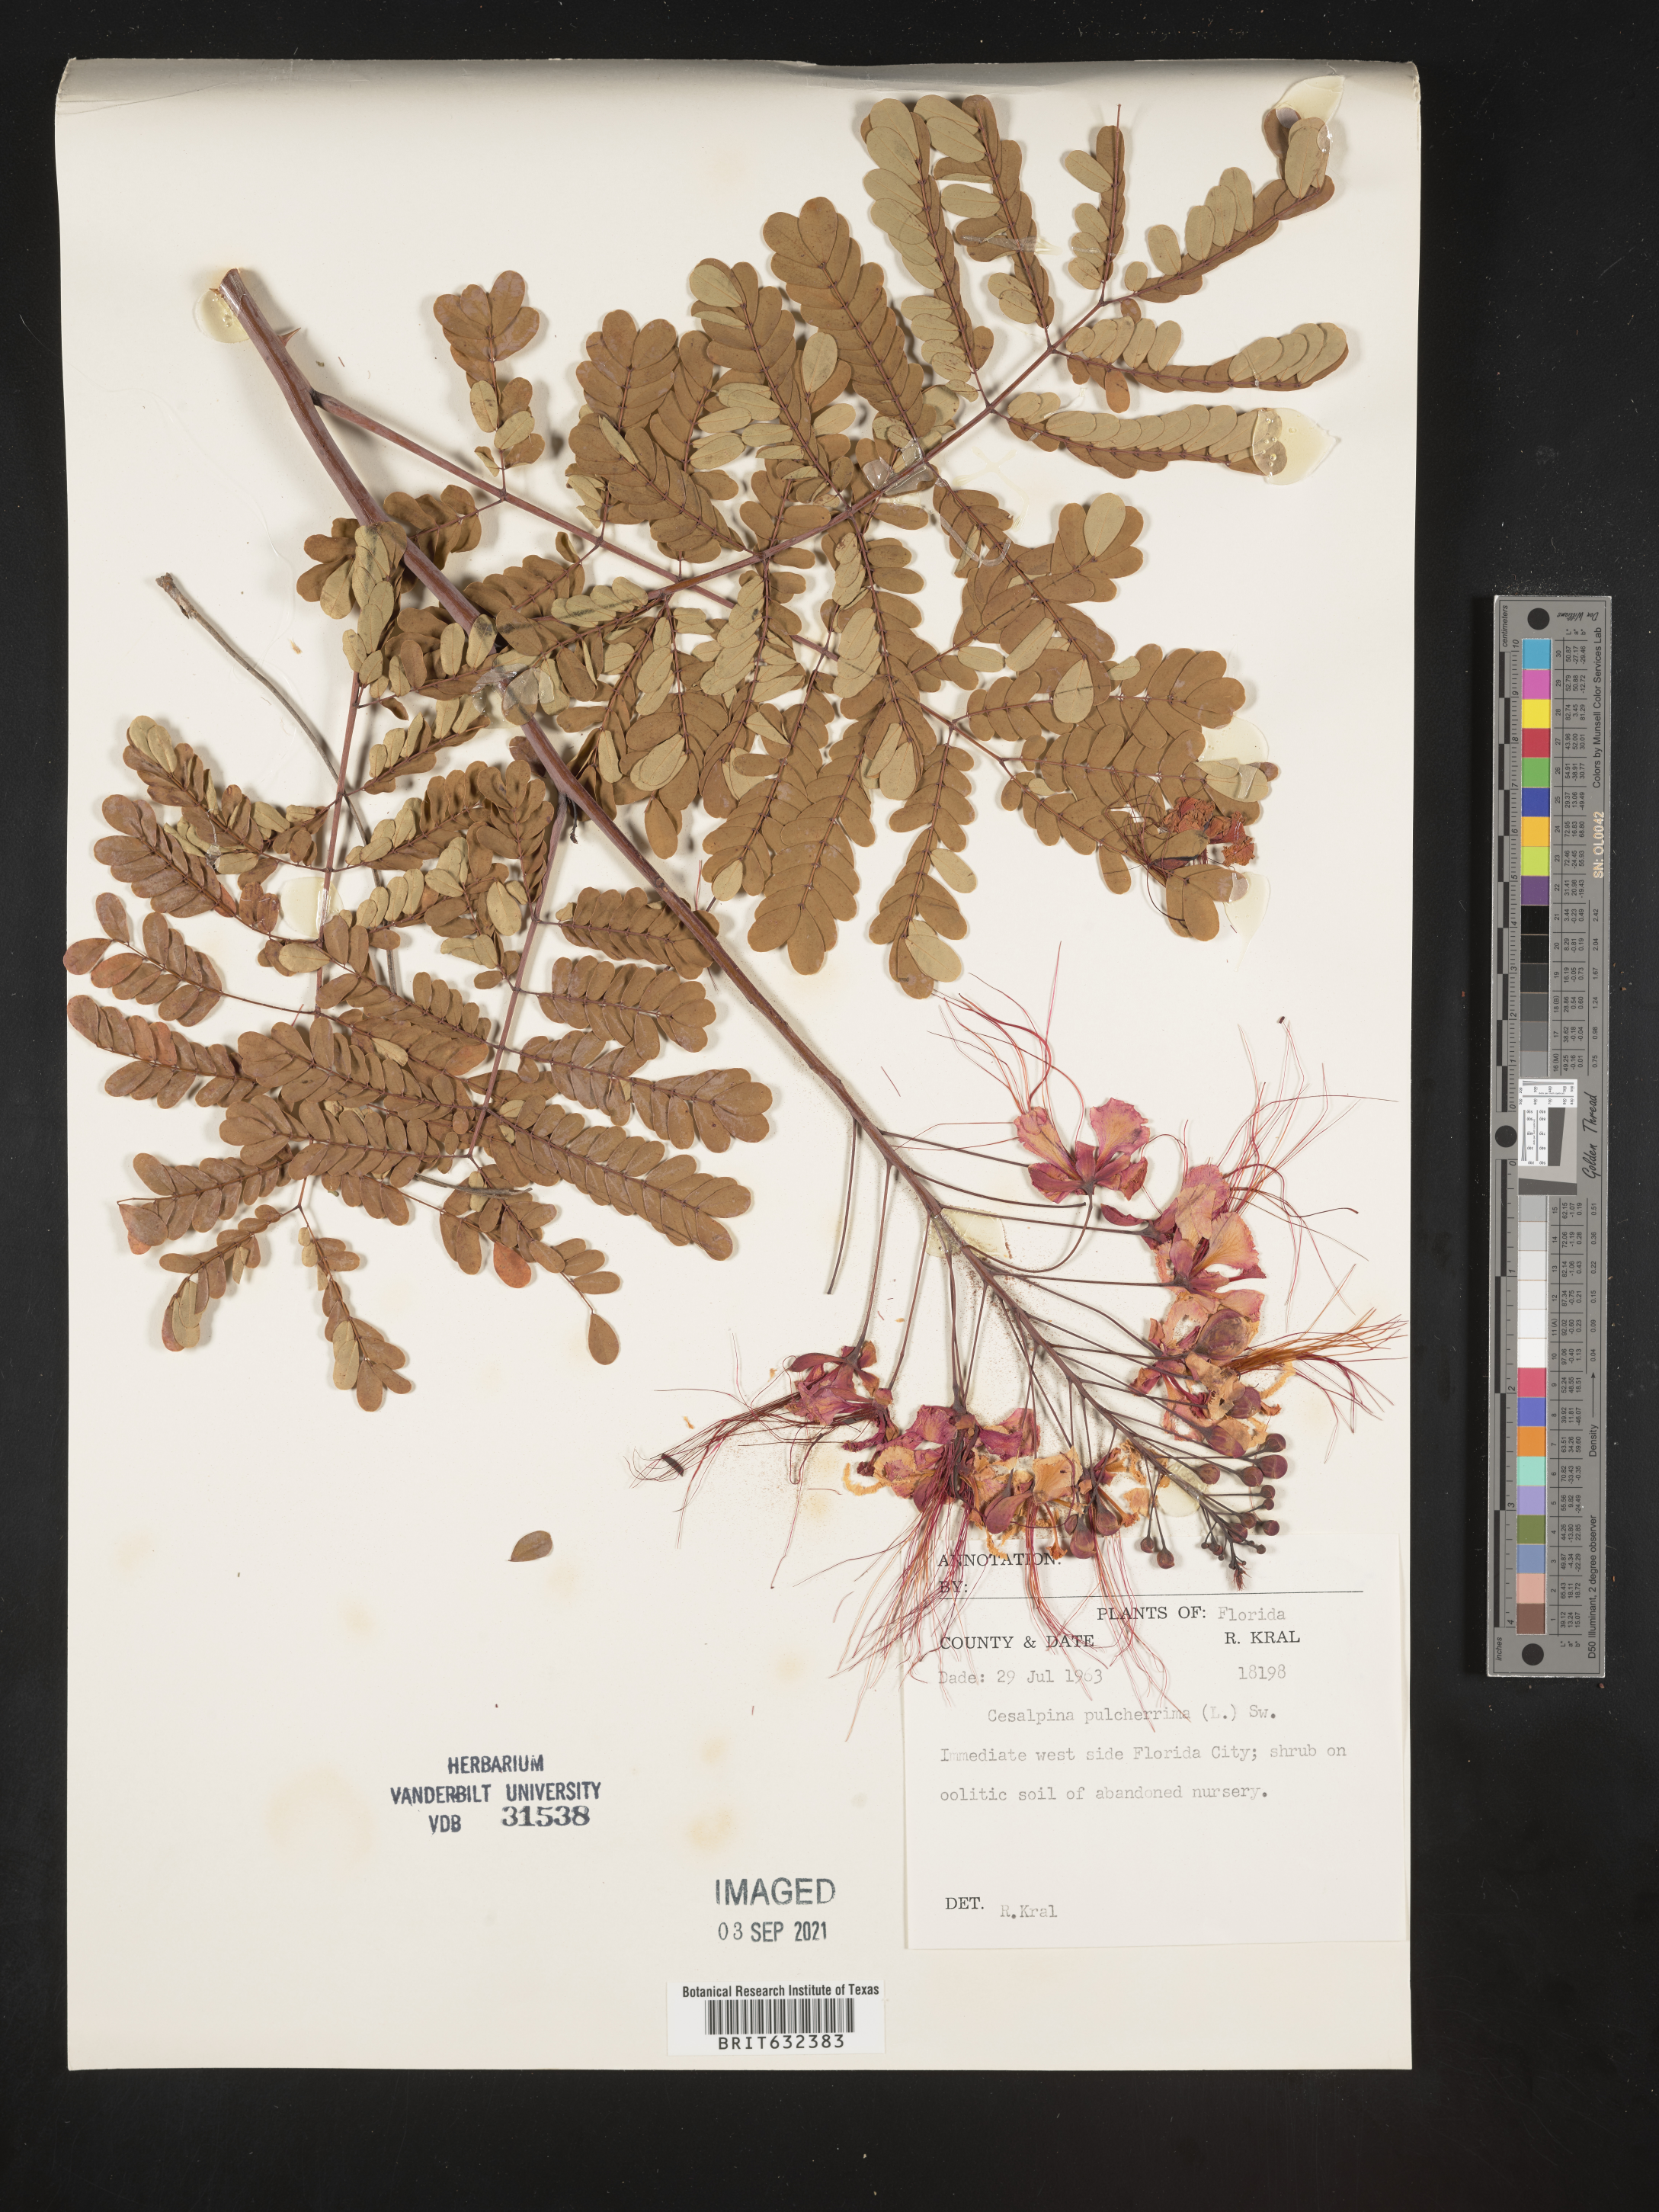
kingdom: Plantae
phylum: Tracheophyta
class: Magnoliopsida
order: Fabales
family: Fabaceae
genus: Caesalpinia
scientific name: Caesalpinia
